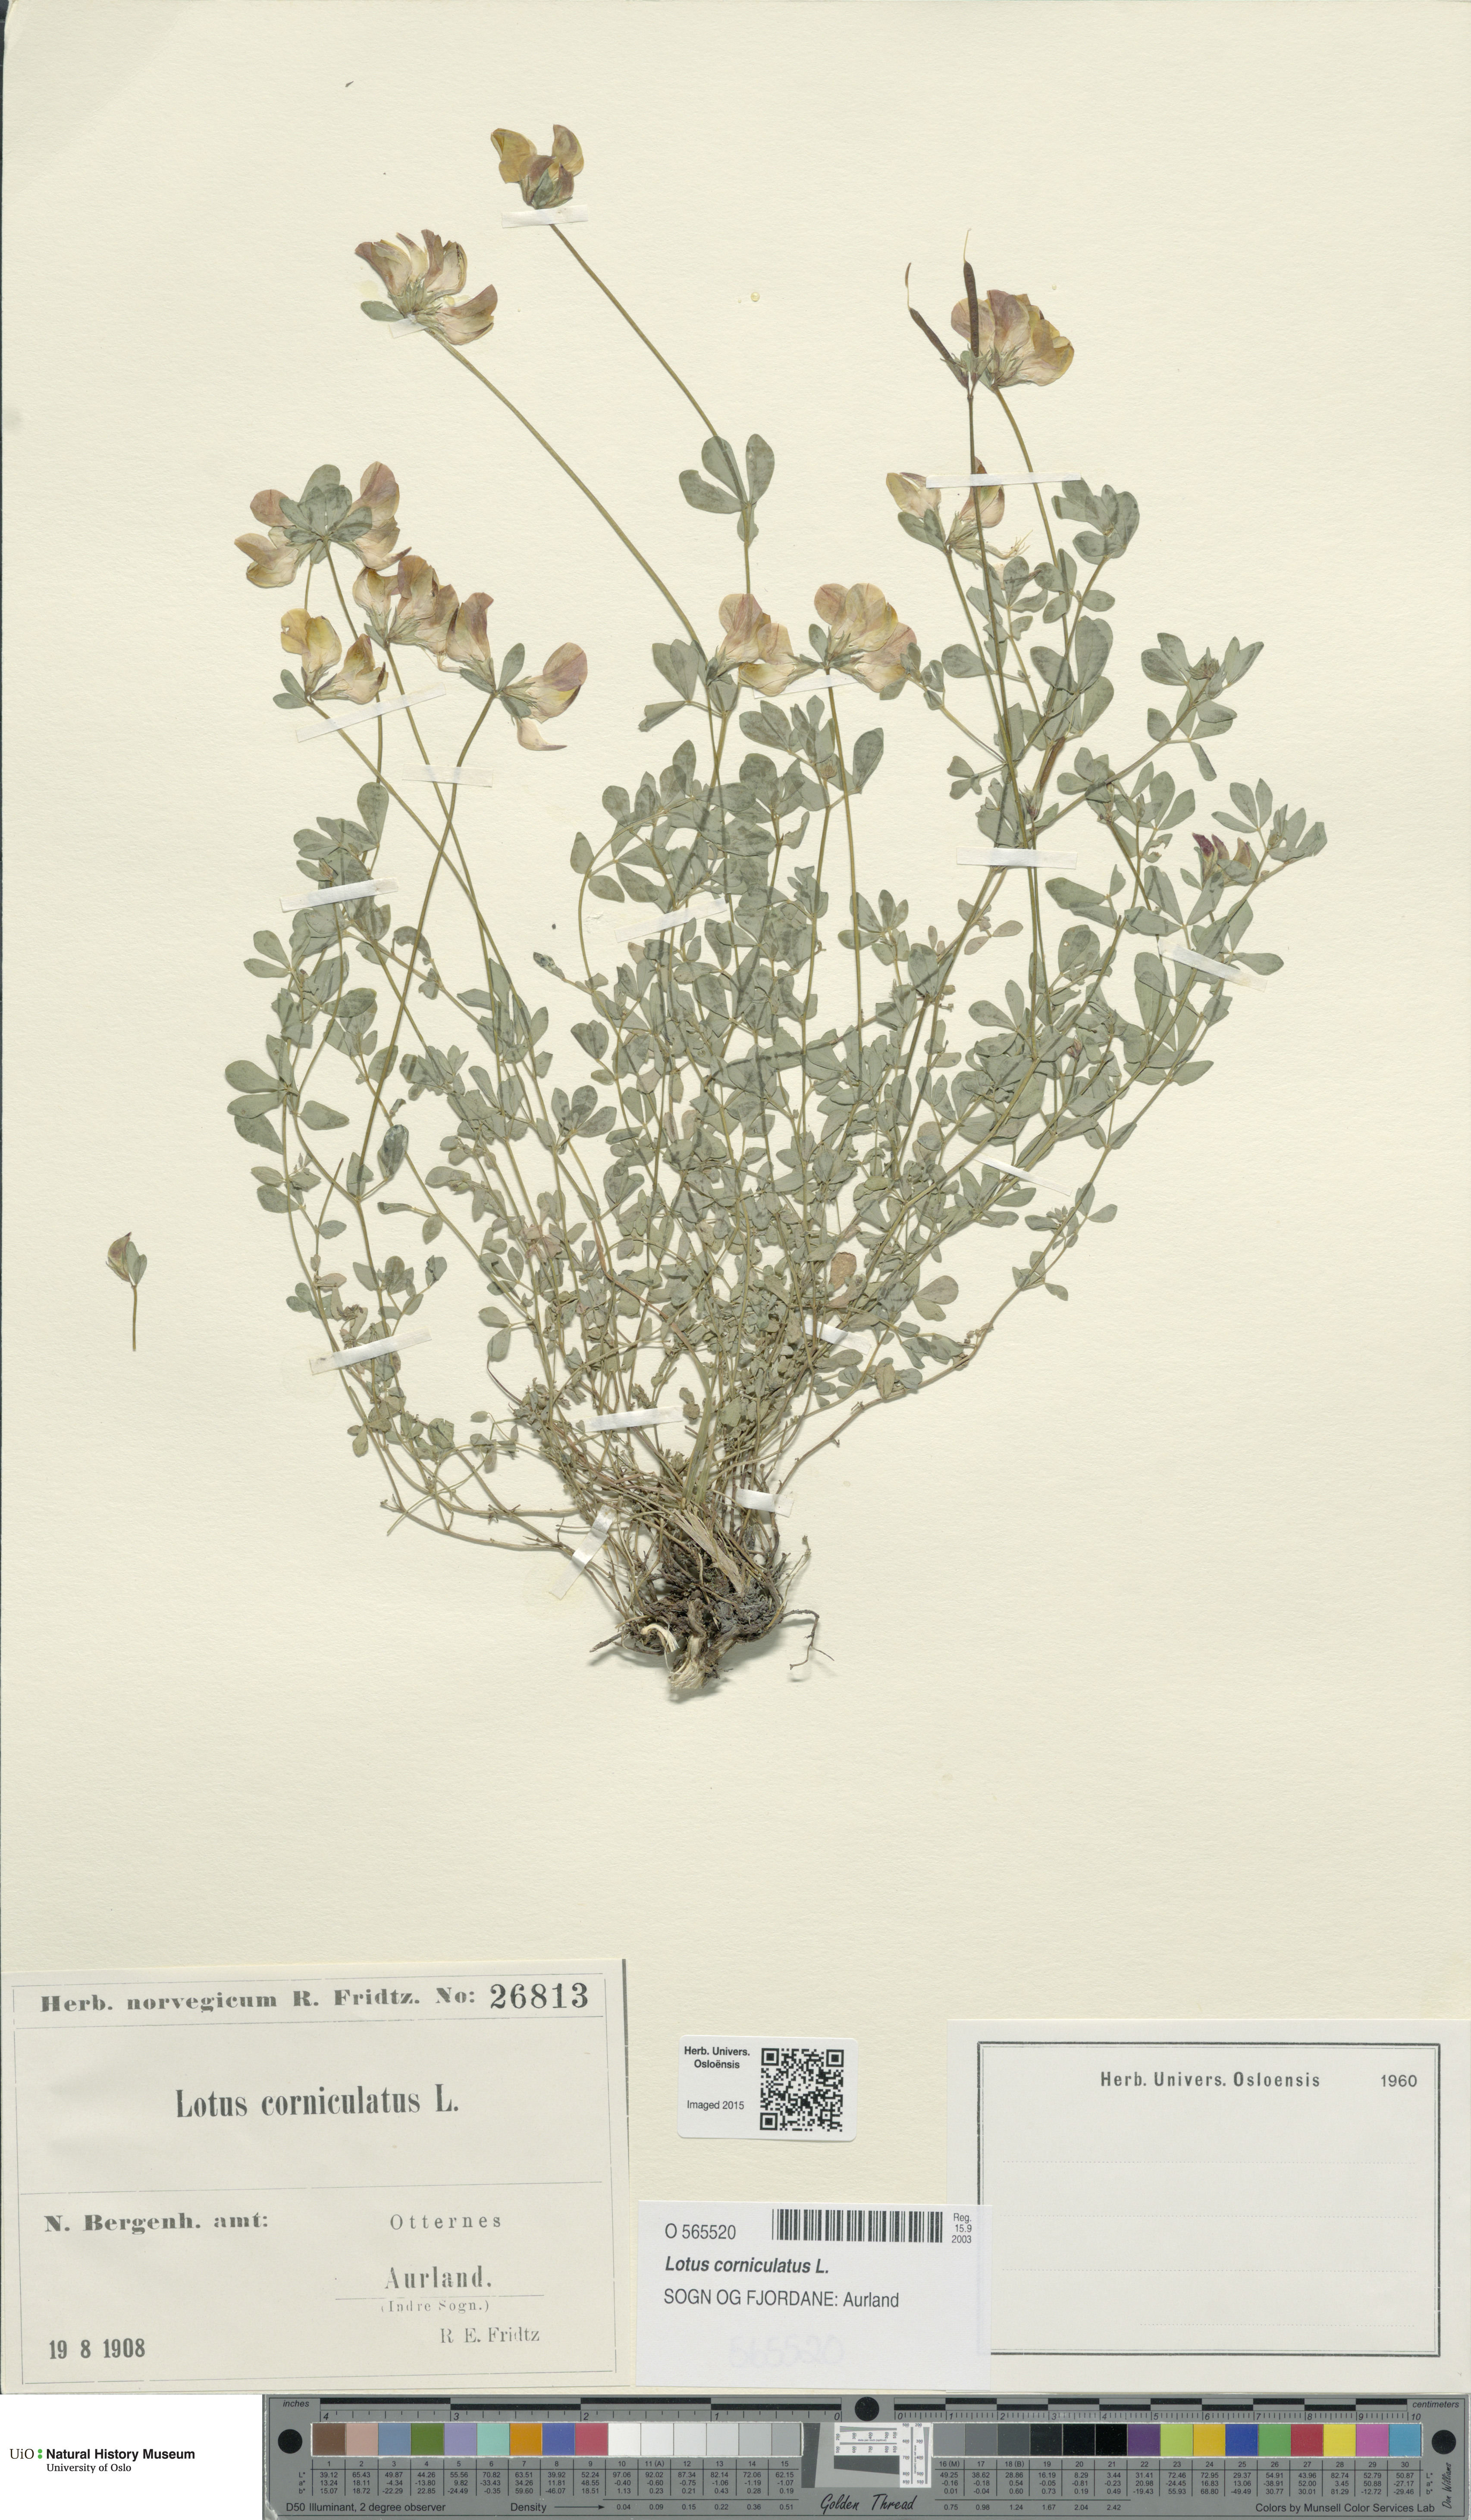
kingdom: Plantae
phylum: Tracheophyta
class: Magnoliopsida
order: Fabales
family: Fabaceae
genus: Lotus
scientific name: Lotus corniculatus
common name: Common bird's-foot-trefoil
